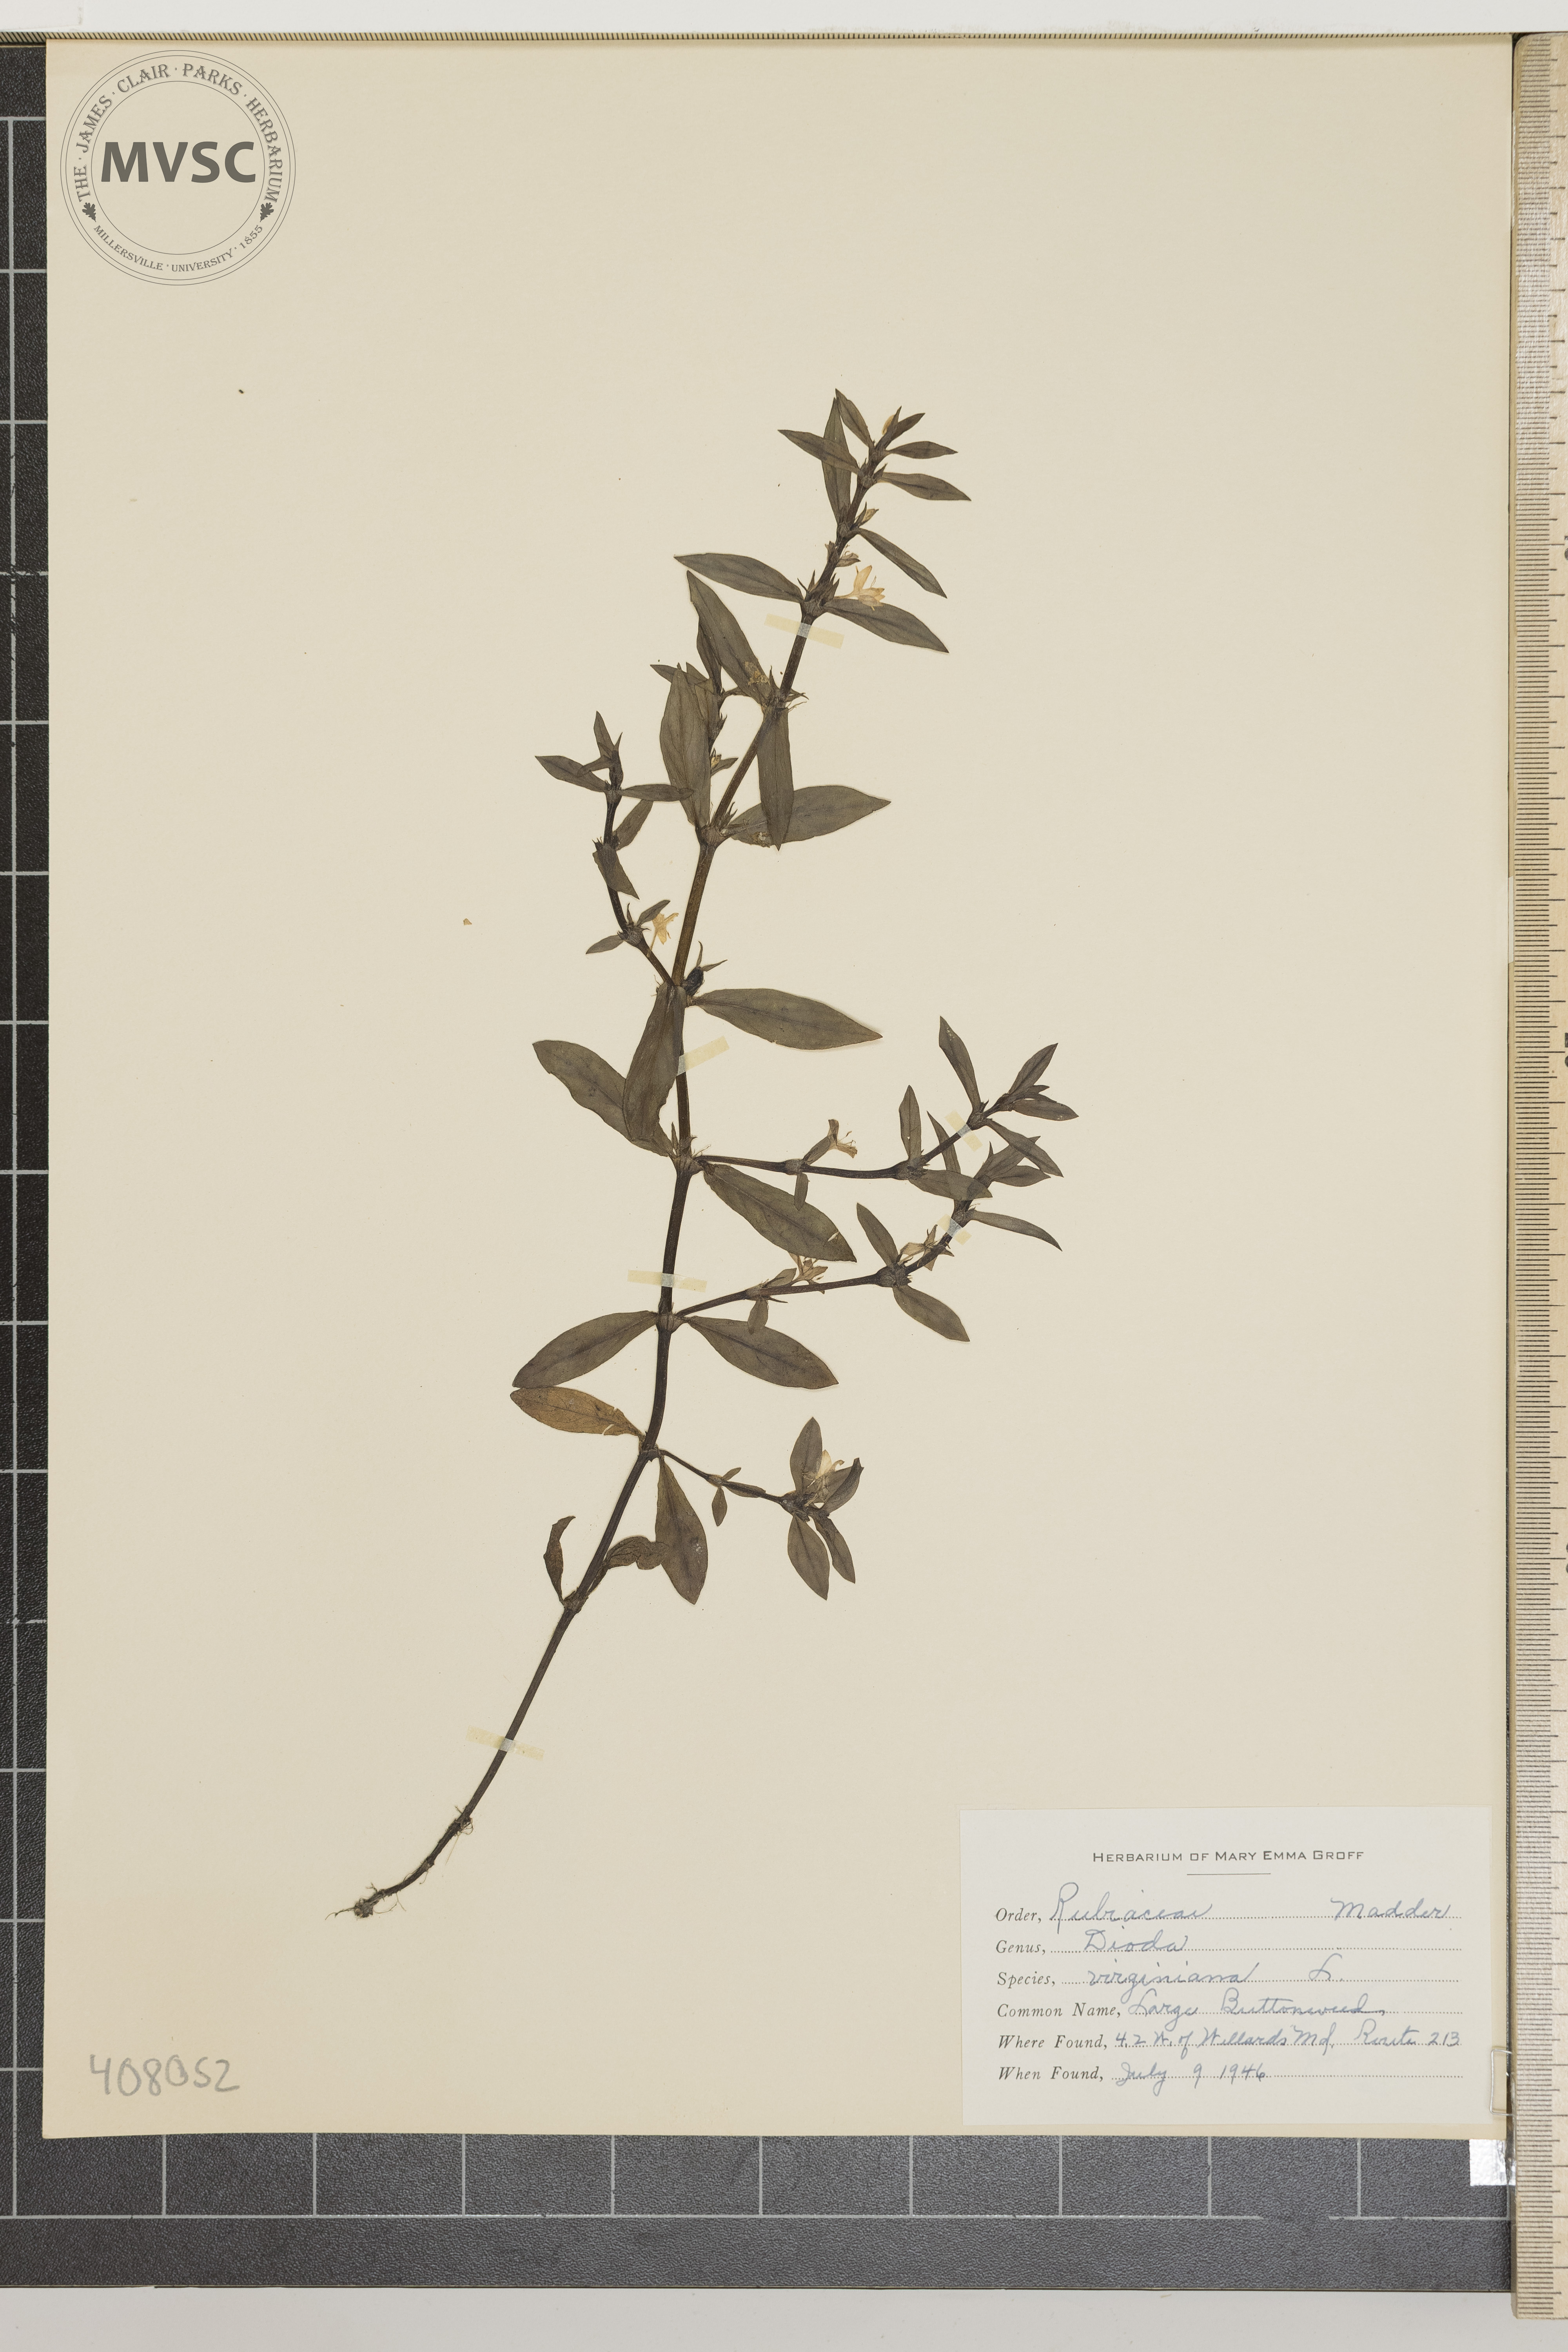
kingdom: Plantae
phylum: Tracheophyta
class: Magnoliopsida
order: Gentianales
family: Rubiaceae
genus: Diodia
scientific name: Diodia virginiana
